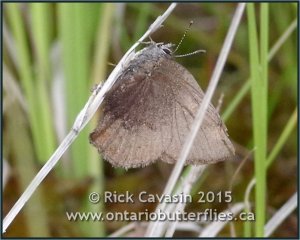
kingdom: Animalia
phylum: Arthropoda
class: Insecta
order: Lepidoptera
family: Lycaenidae
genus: Incisalia
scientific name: Incisalia irioides
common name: Brown Elfin
